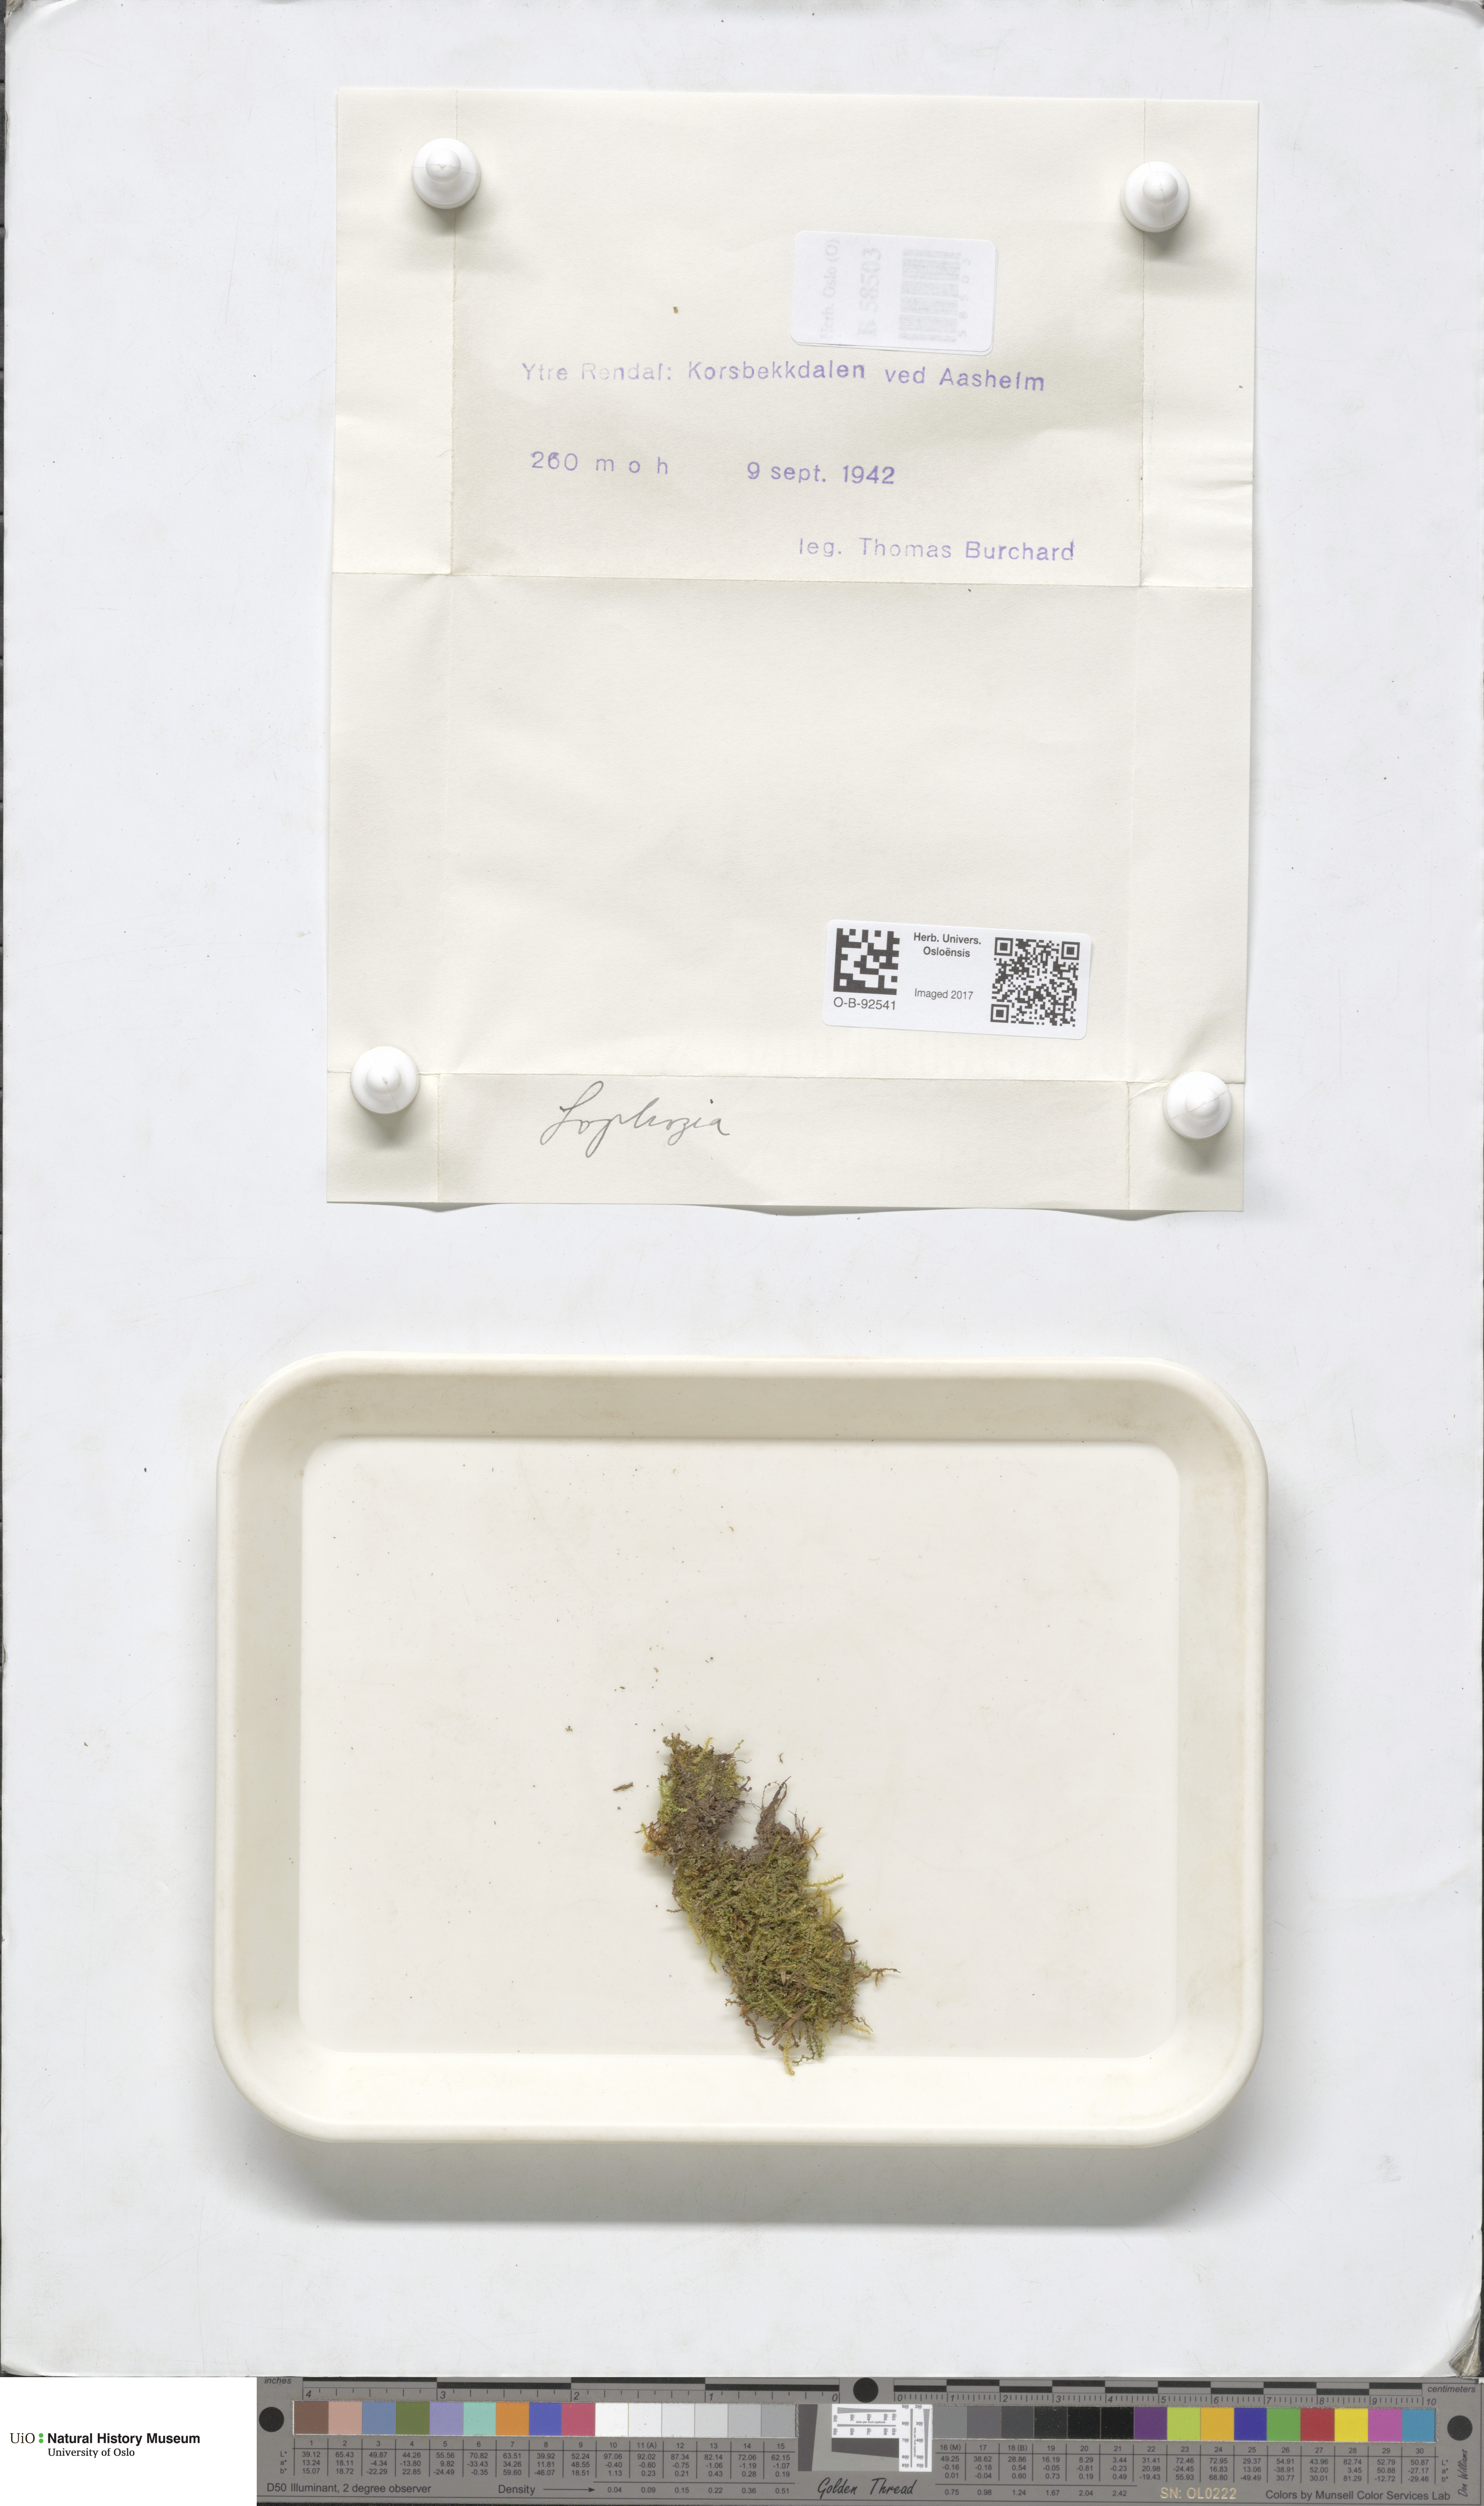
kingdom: Plantae
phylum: Marchantiophyta
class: Jungermanniopsida
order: Jungermanniales
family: Lophoziaceae
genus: Lophozia
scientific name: Lophozia
